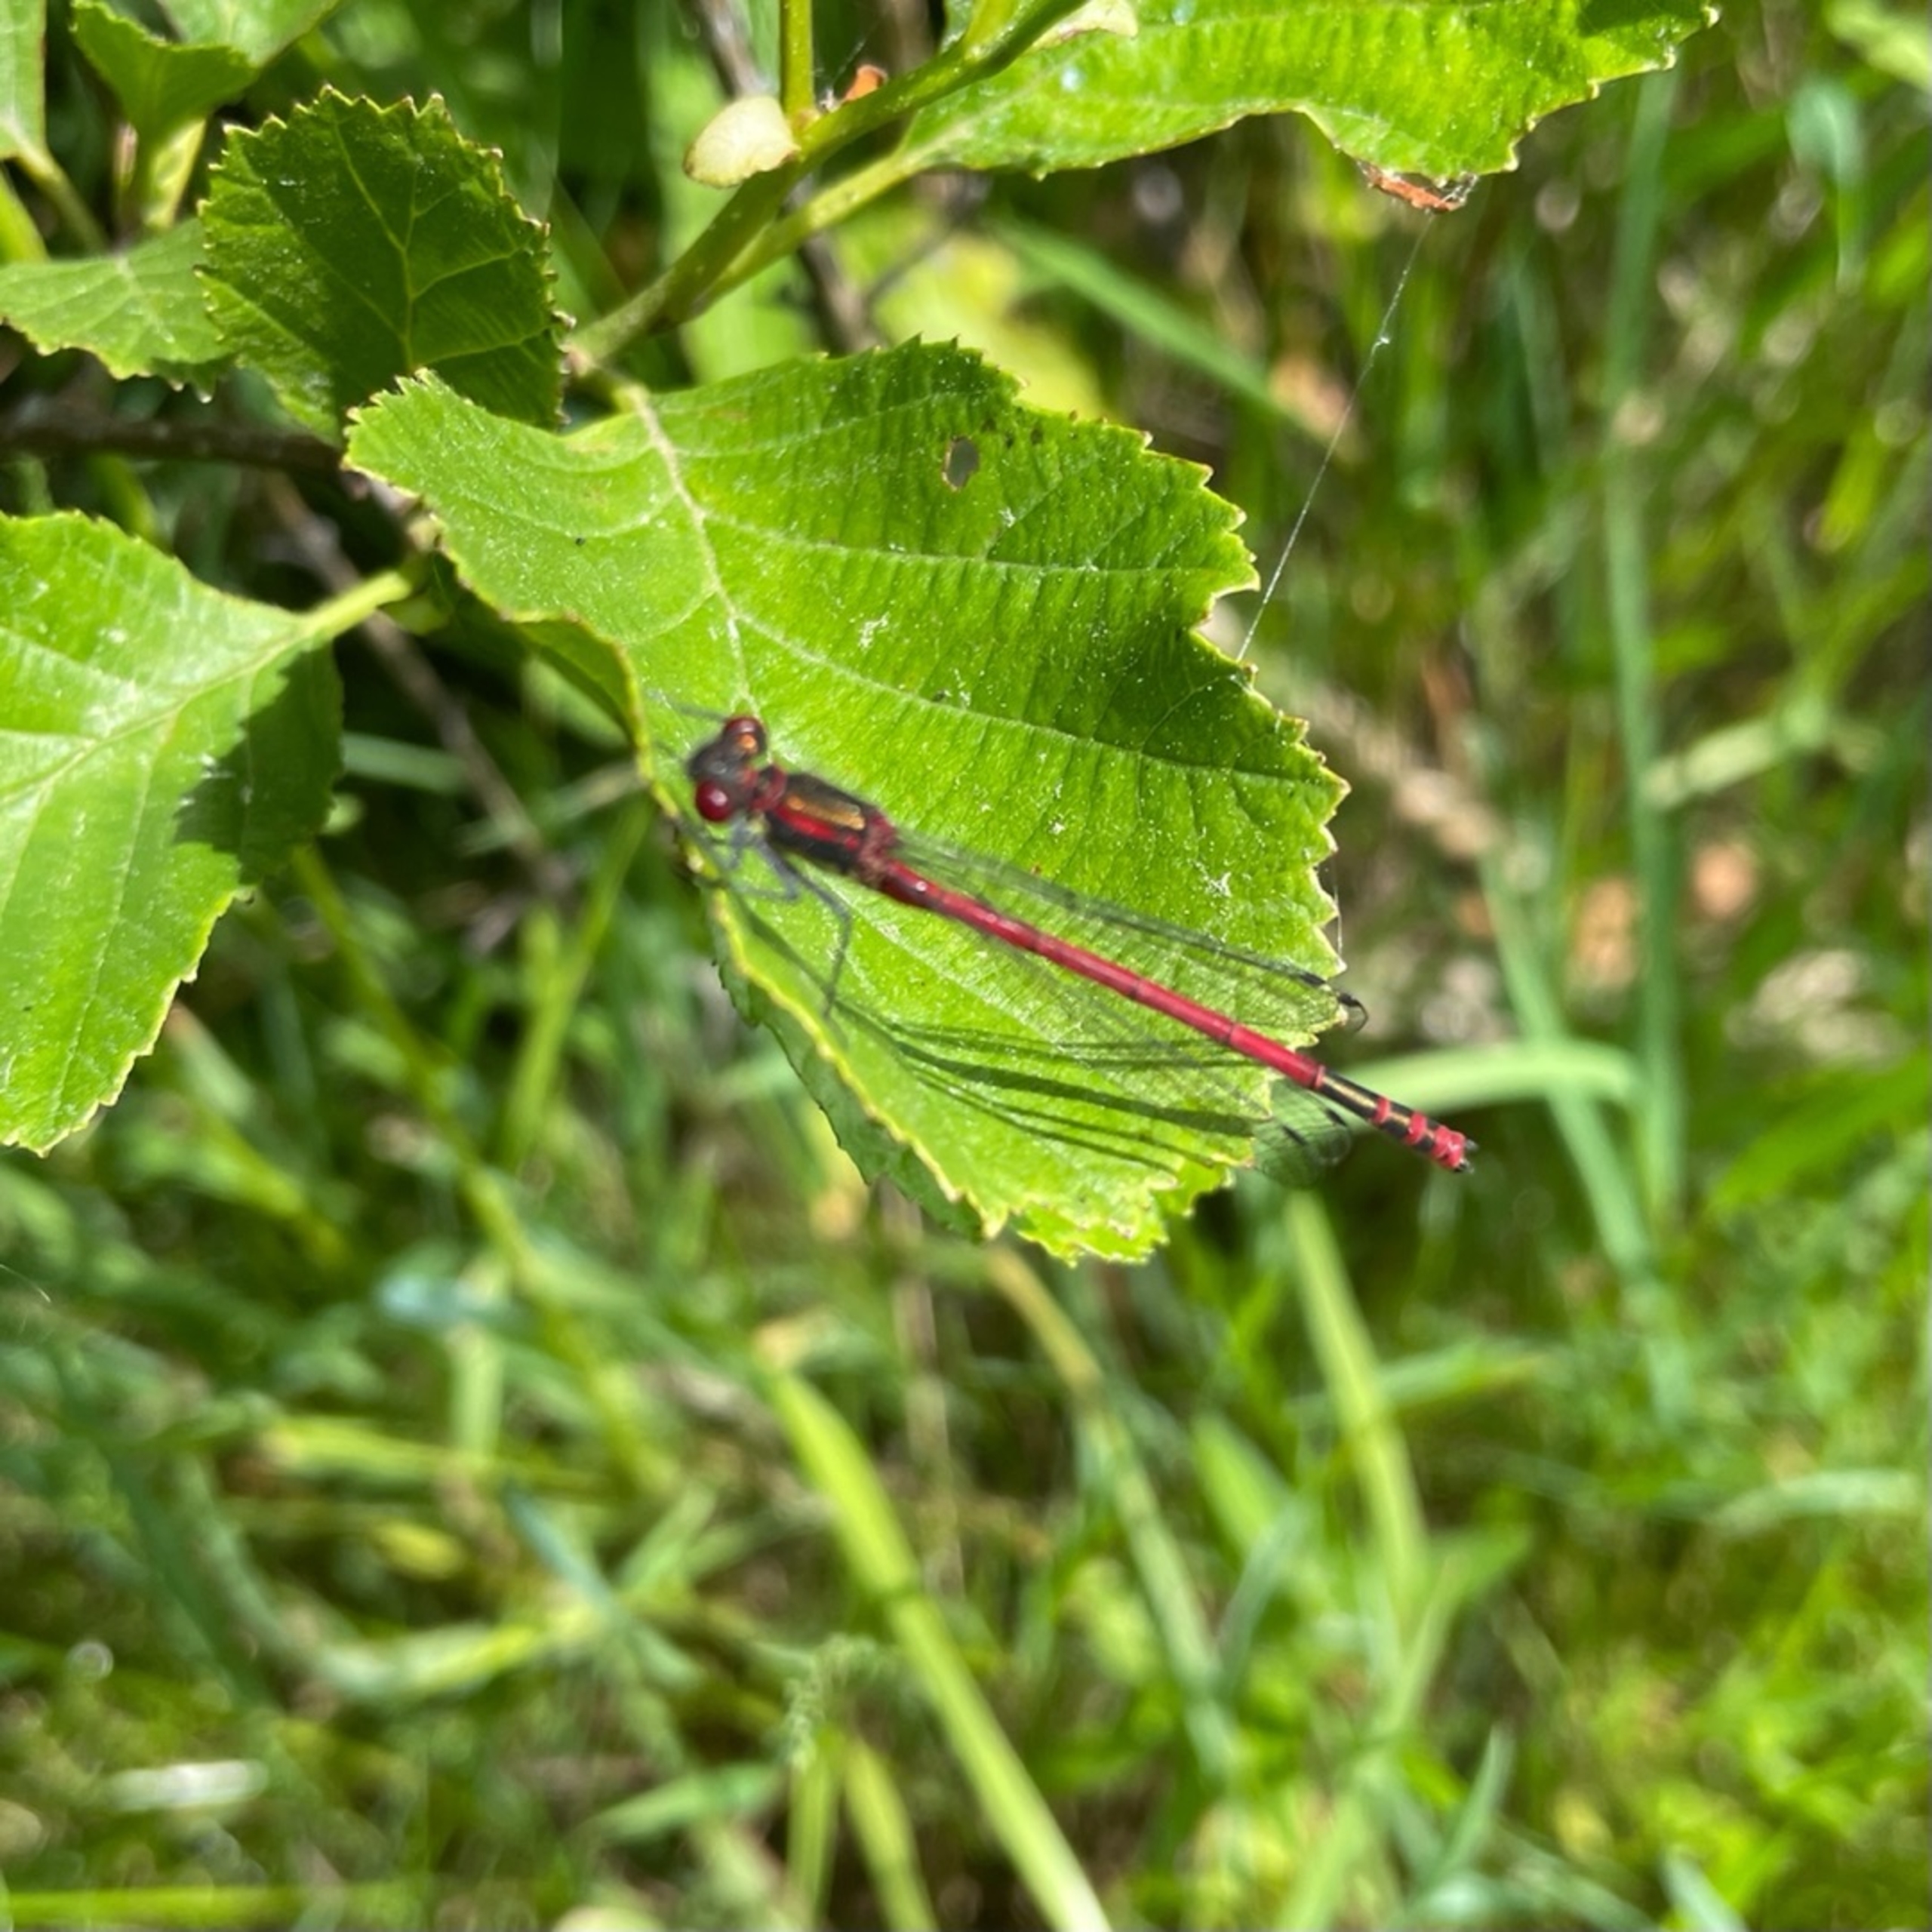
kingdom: Animalia
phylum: Arthropoda
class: Insecta
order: Odonata
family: Coenagrionidae
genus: Pyrrhosoma
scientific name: Pyrrhosoma nymphula
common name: Rød vandnymfe
